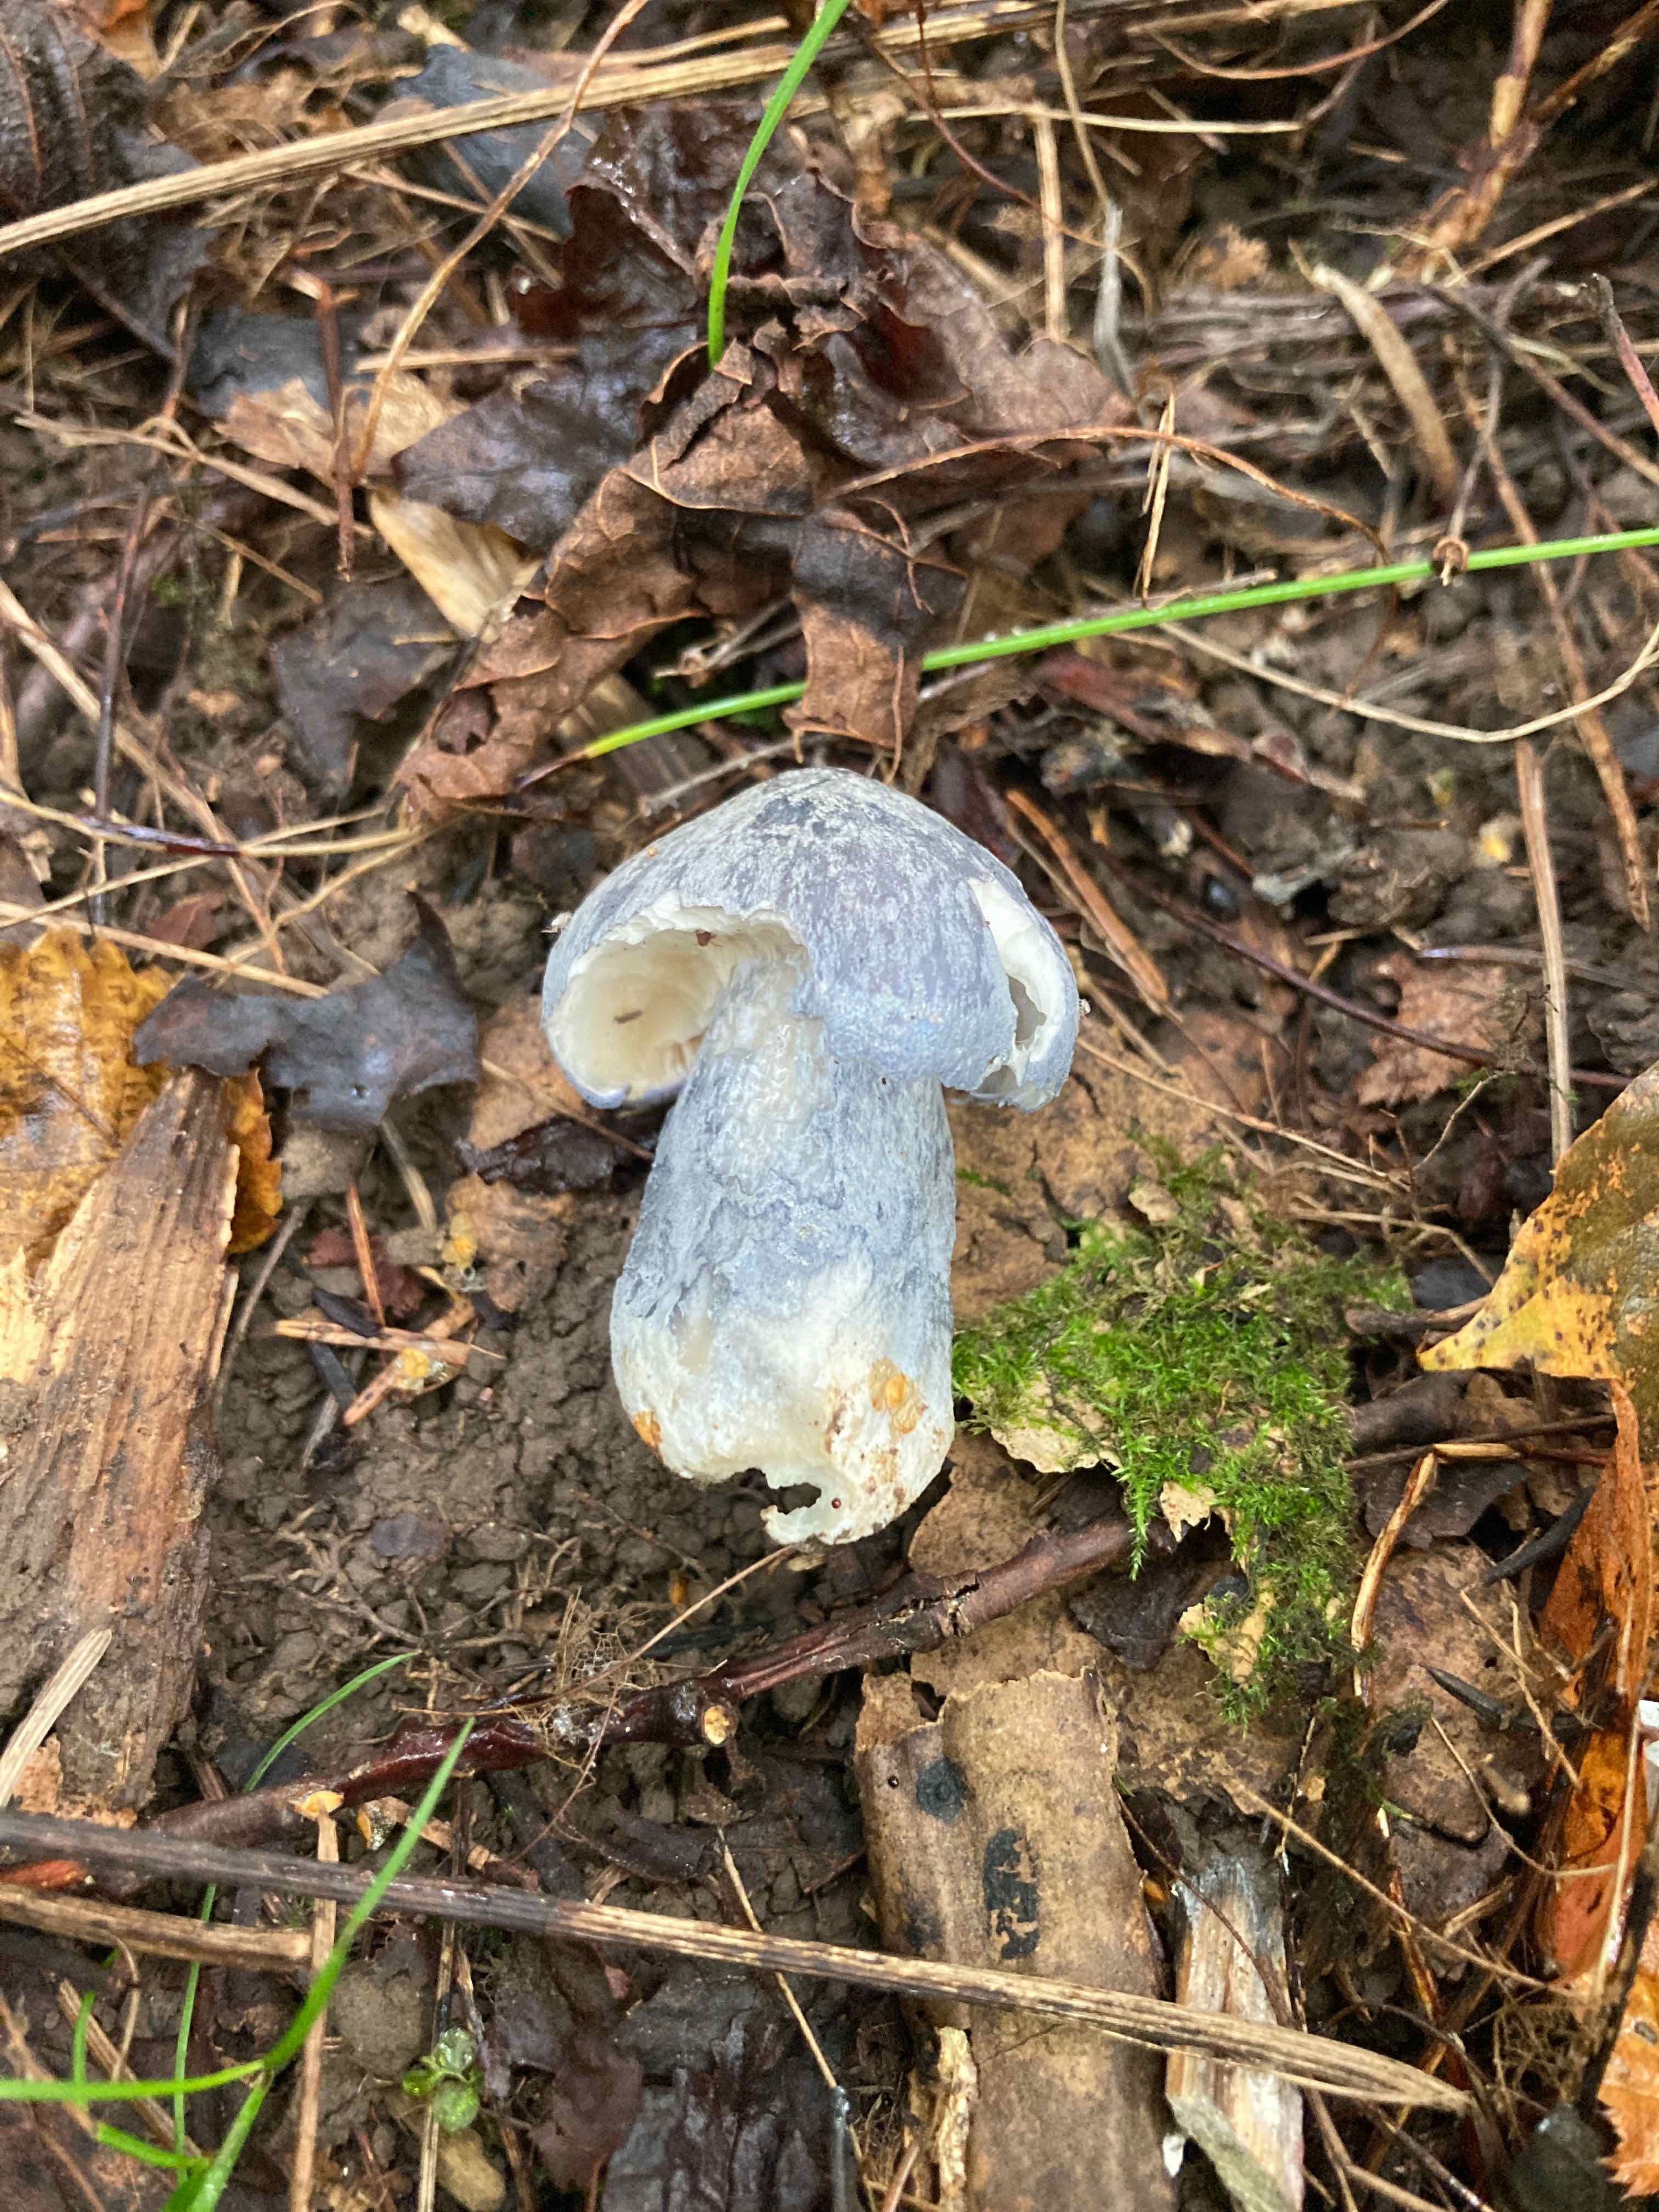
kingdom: Fungi
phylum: Basidiomycota
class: Agaricomycetes
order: Agaricales
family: Entolomataceae
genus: Entoloma
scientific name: Entoloma madidum
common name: indigo-rødblad
